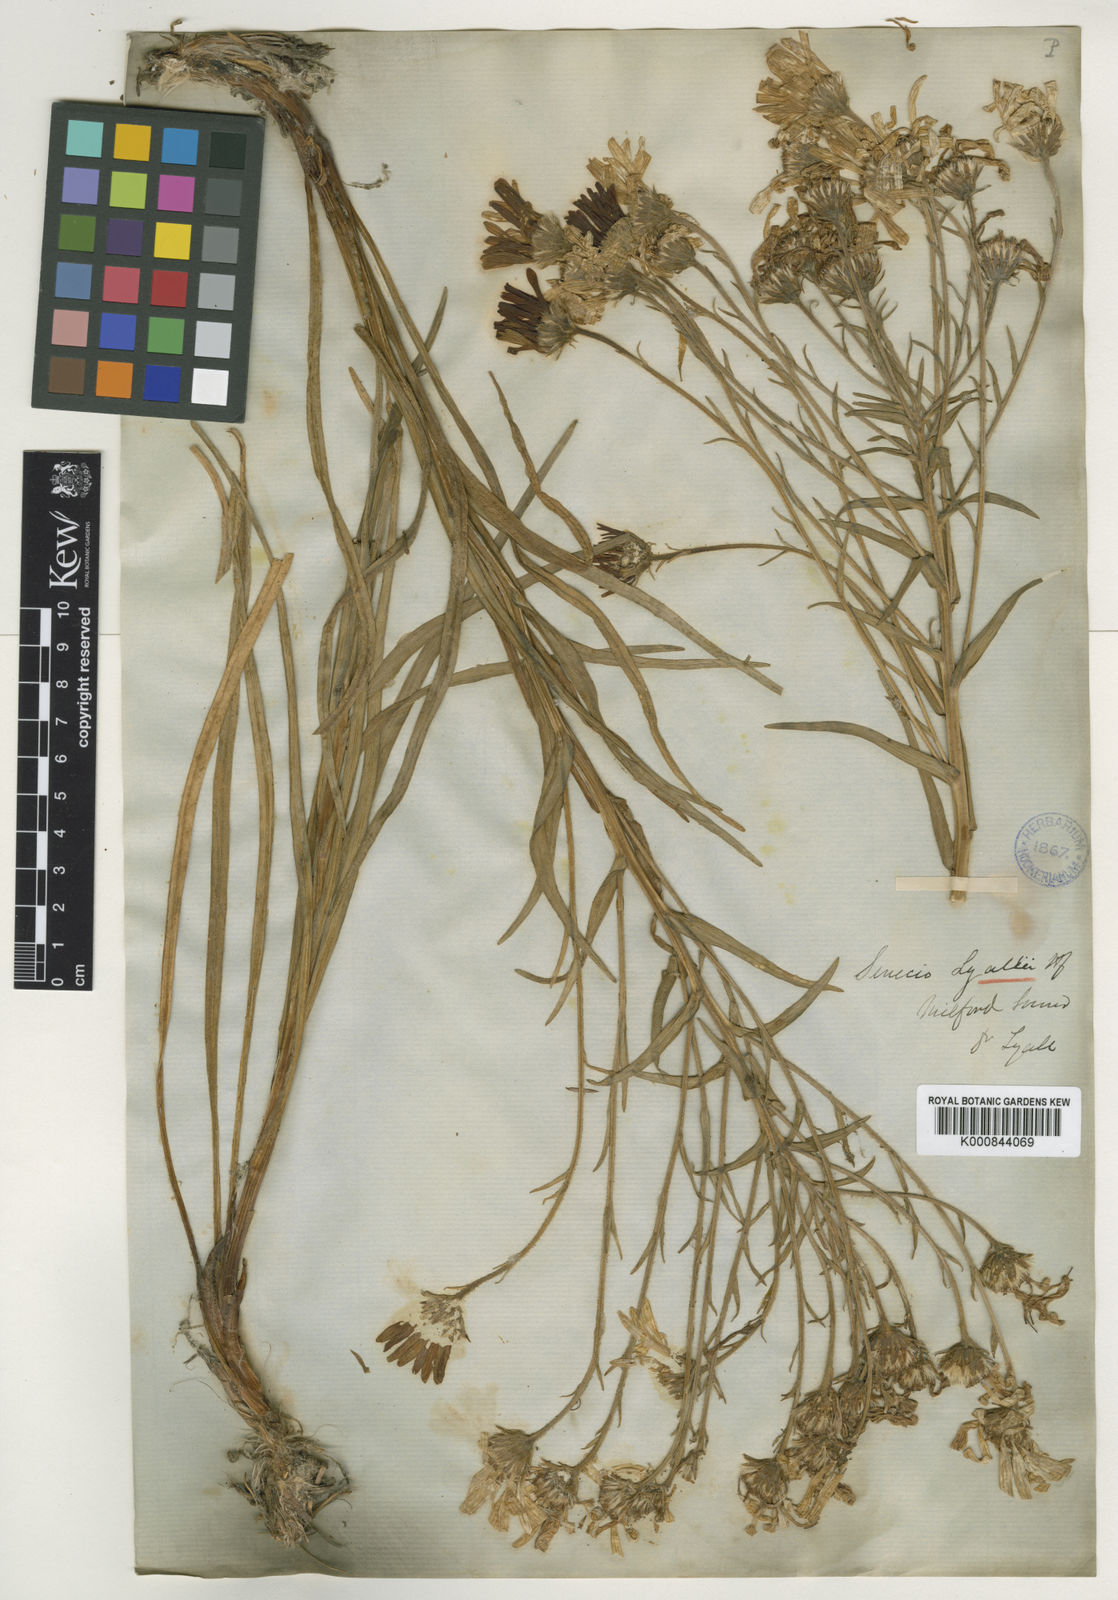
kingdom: Plantae
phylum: Tracheophyta
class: Magnoliopsida
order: Asterales
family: Asteraceae
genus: Dolichoglottis
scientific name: Dolichoglottis lyallii
